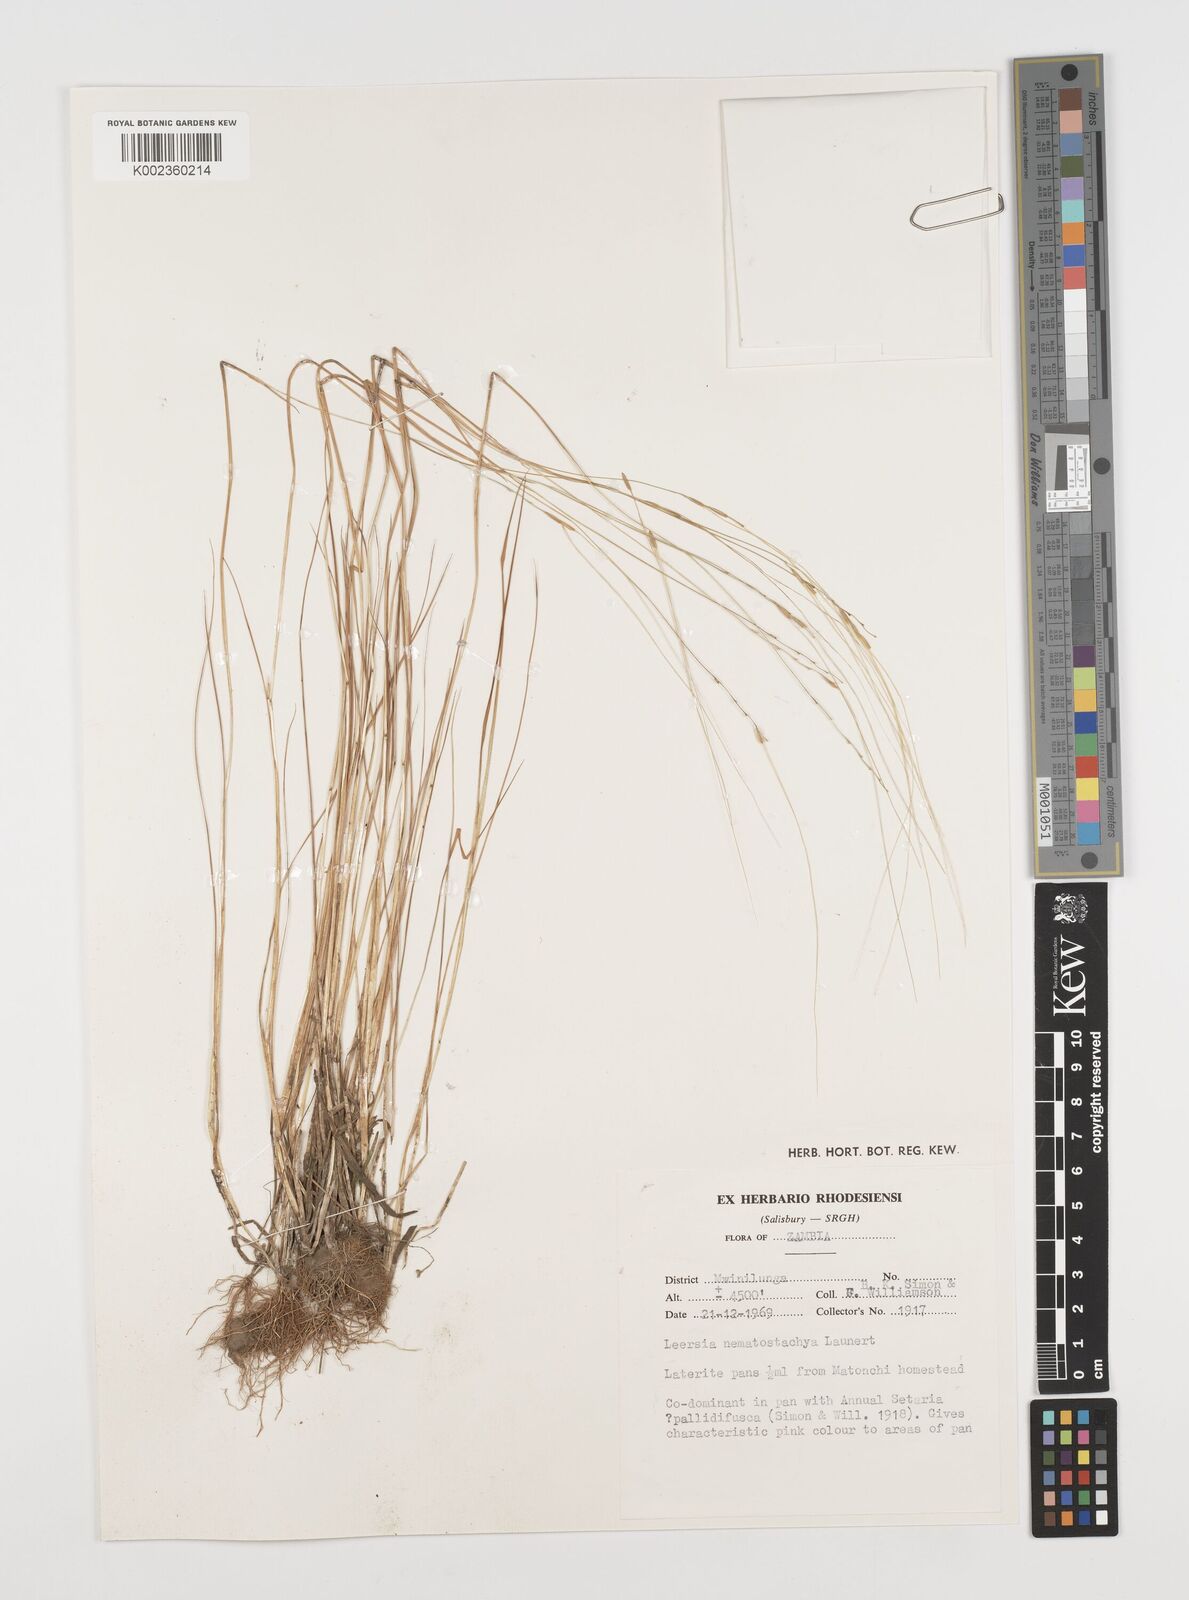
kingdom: Plantae
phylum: Tracheophyta
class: Liliopsida
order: Poales
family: Poaceae
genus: Leersia
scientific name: Leersia nematostachya
